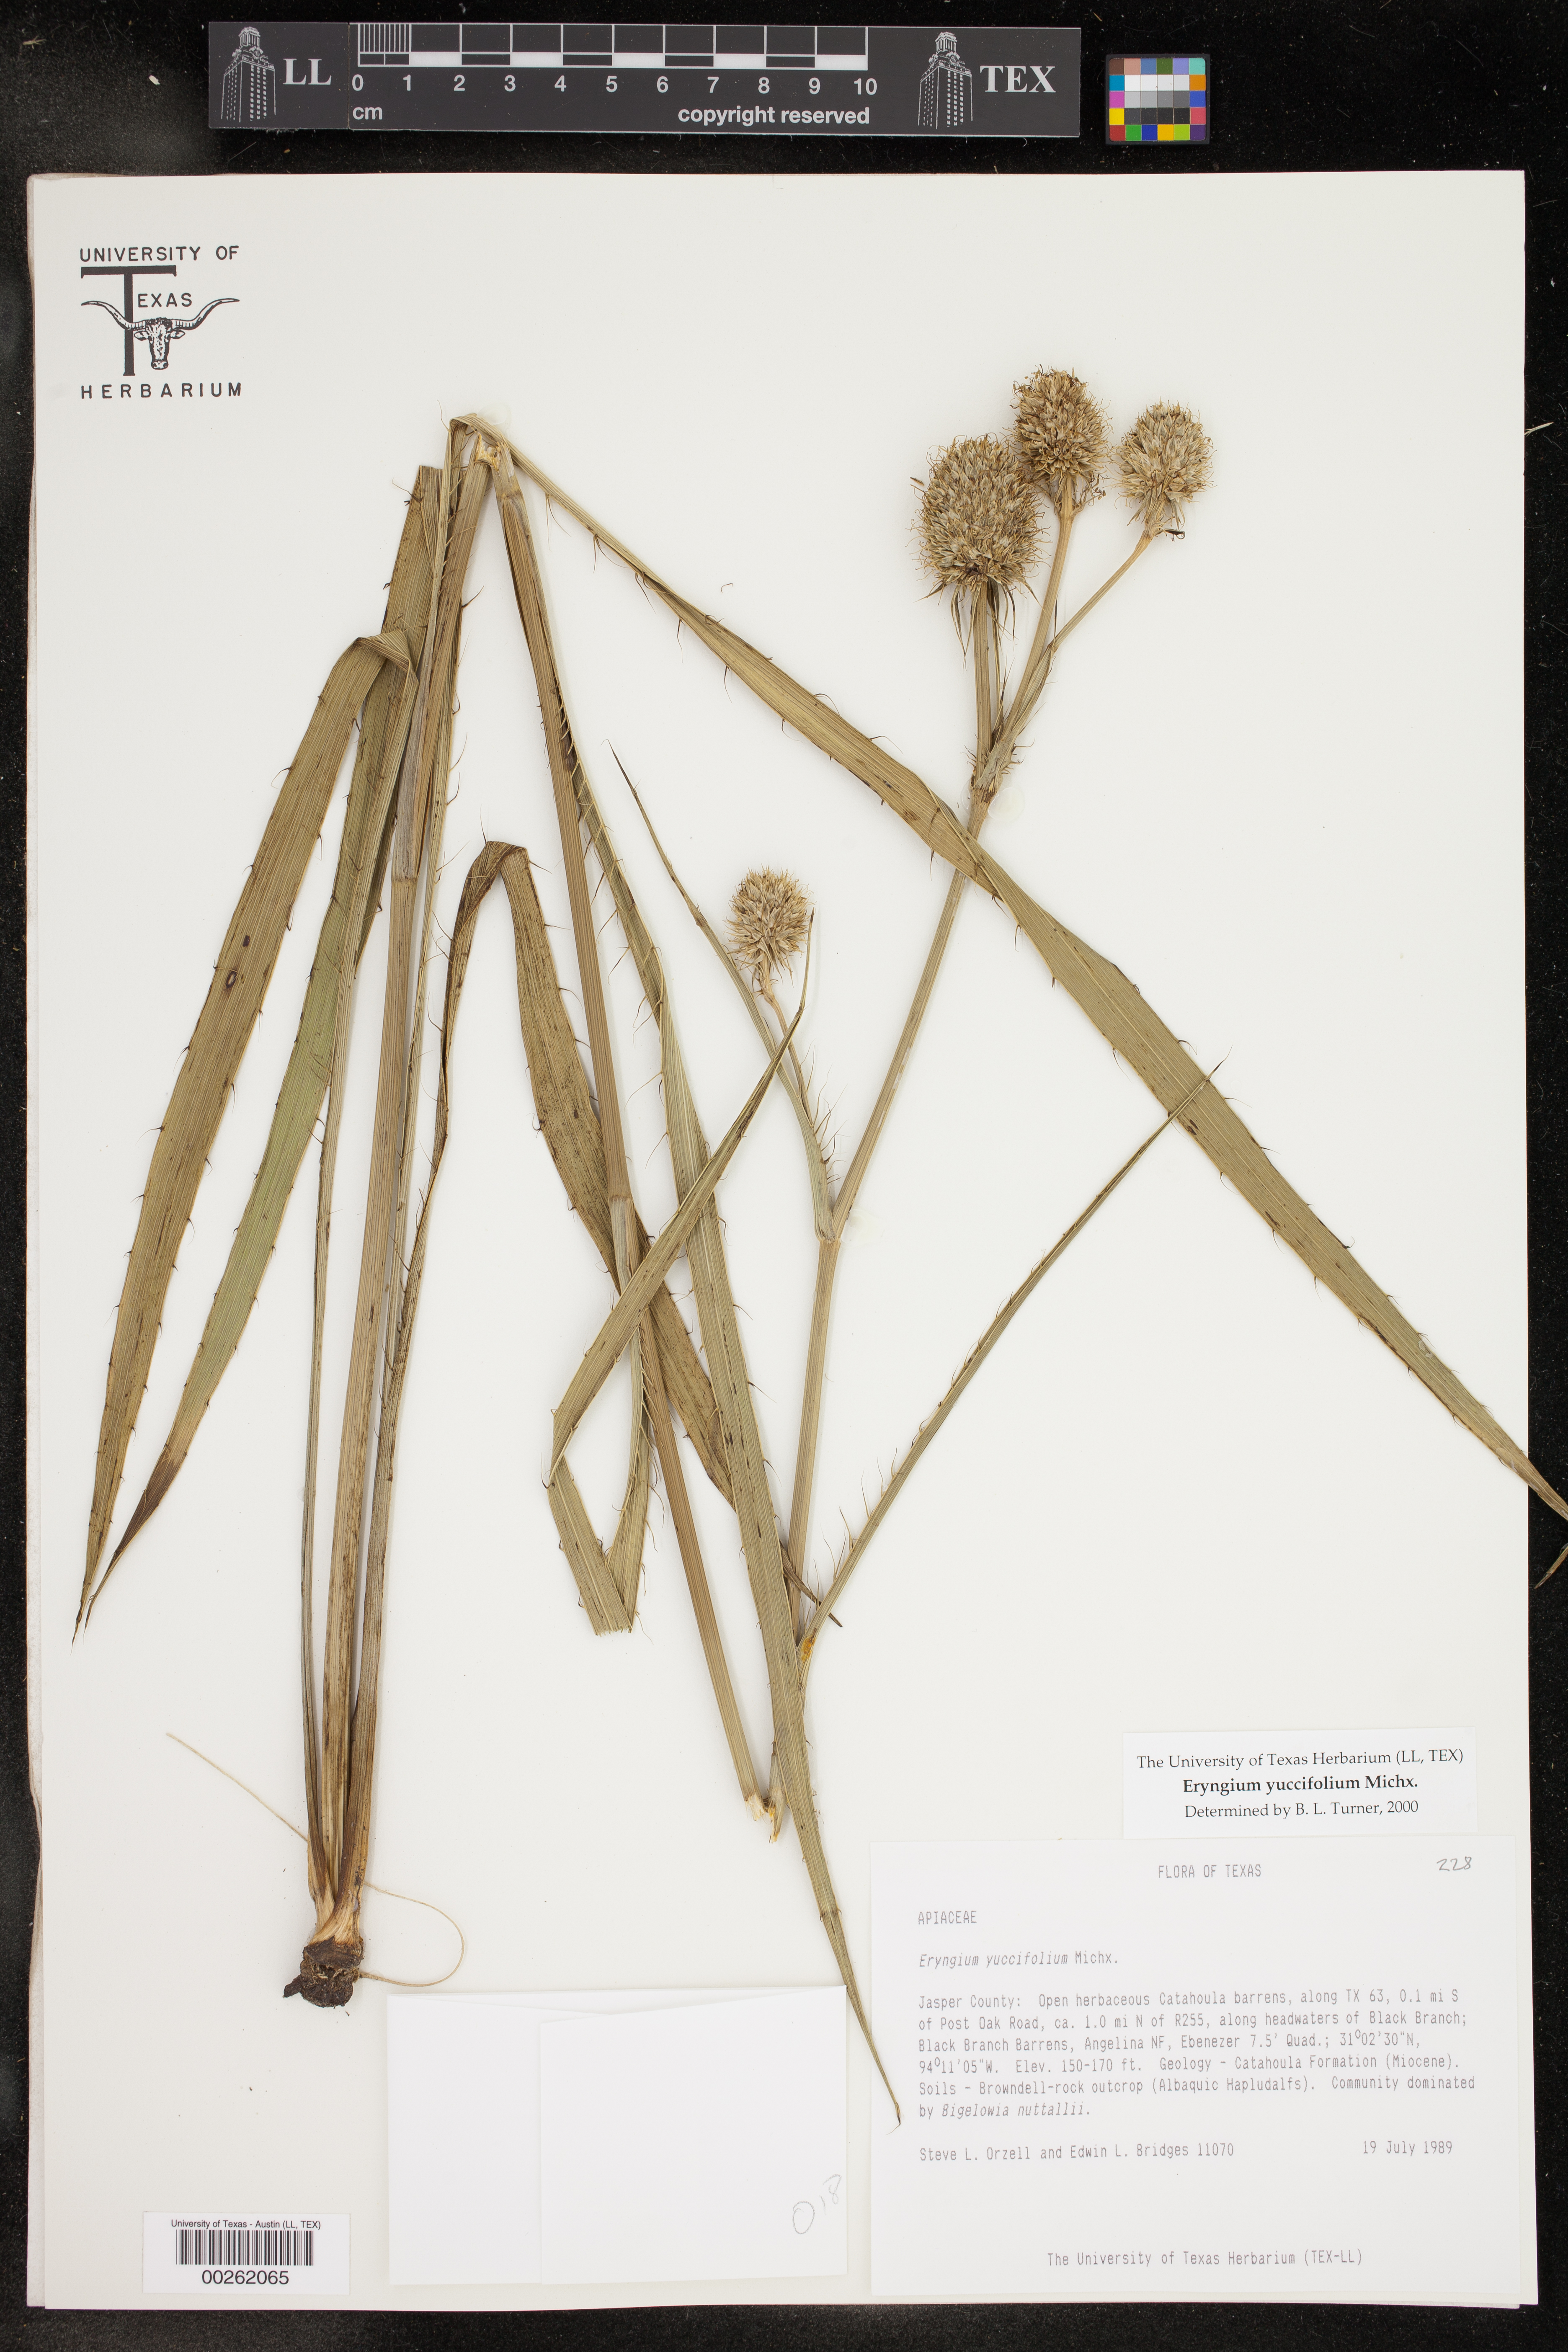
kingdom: Plantae
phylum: Tracheophyta
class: Magnoliopsida
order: Apiales
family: Apiaceae
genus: Eryngium
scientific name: Eryngium yuccifolium
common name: Button eryngo
